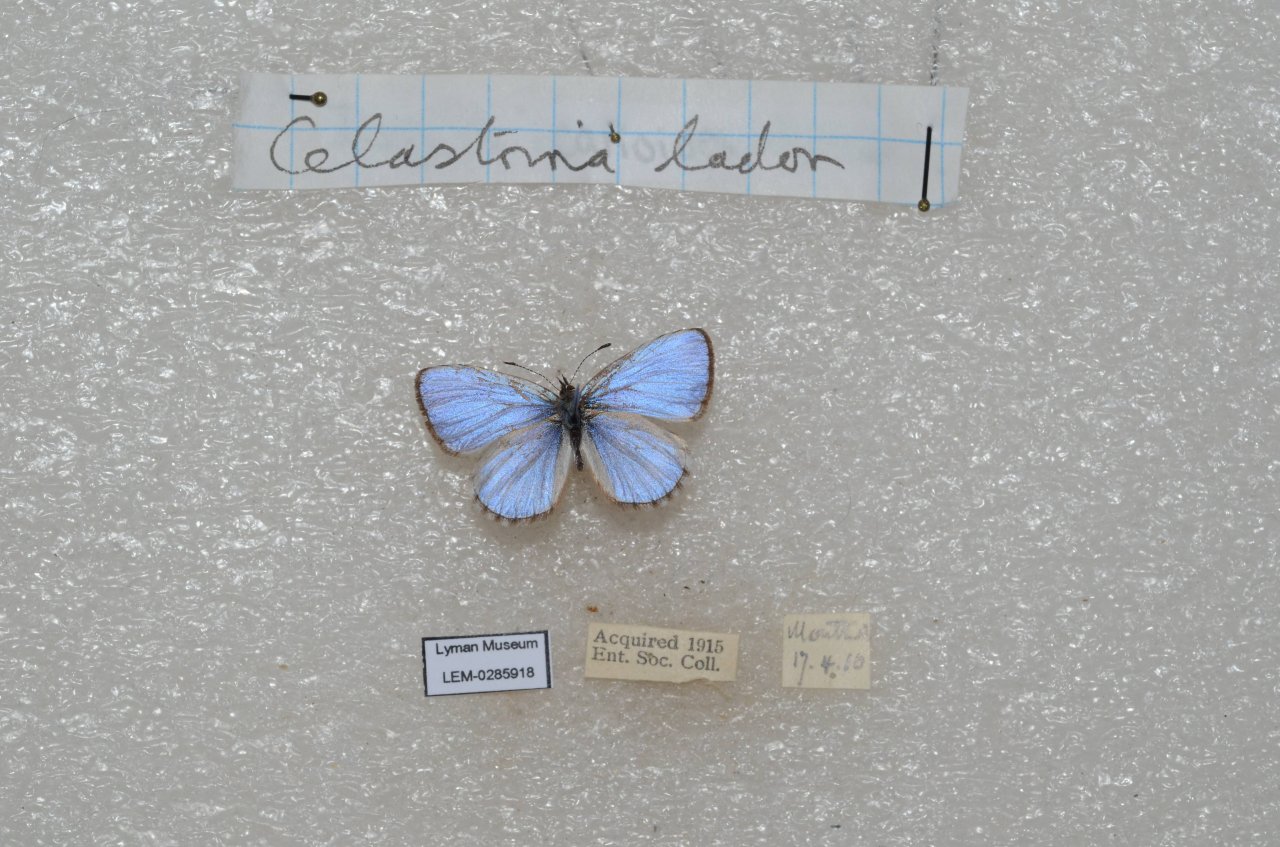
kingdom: Animalia
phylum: Arthropoda
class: Insecta
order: Lepidoptera
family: Lycaenidae
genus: Celastrina
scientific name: Celastrina lucia
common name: Northern Spring Azure
